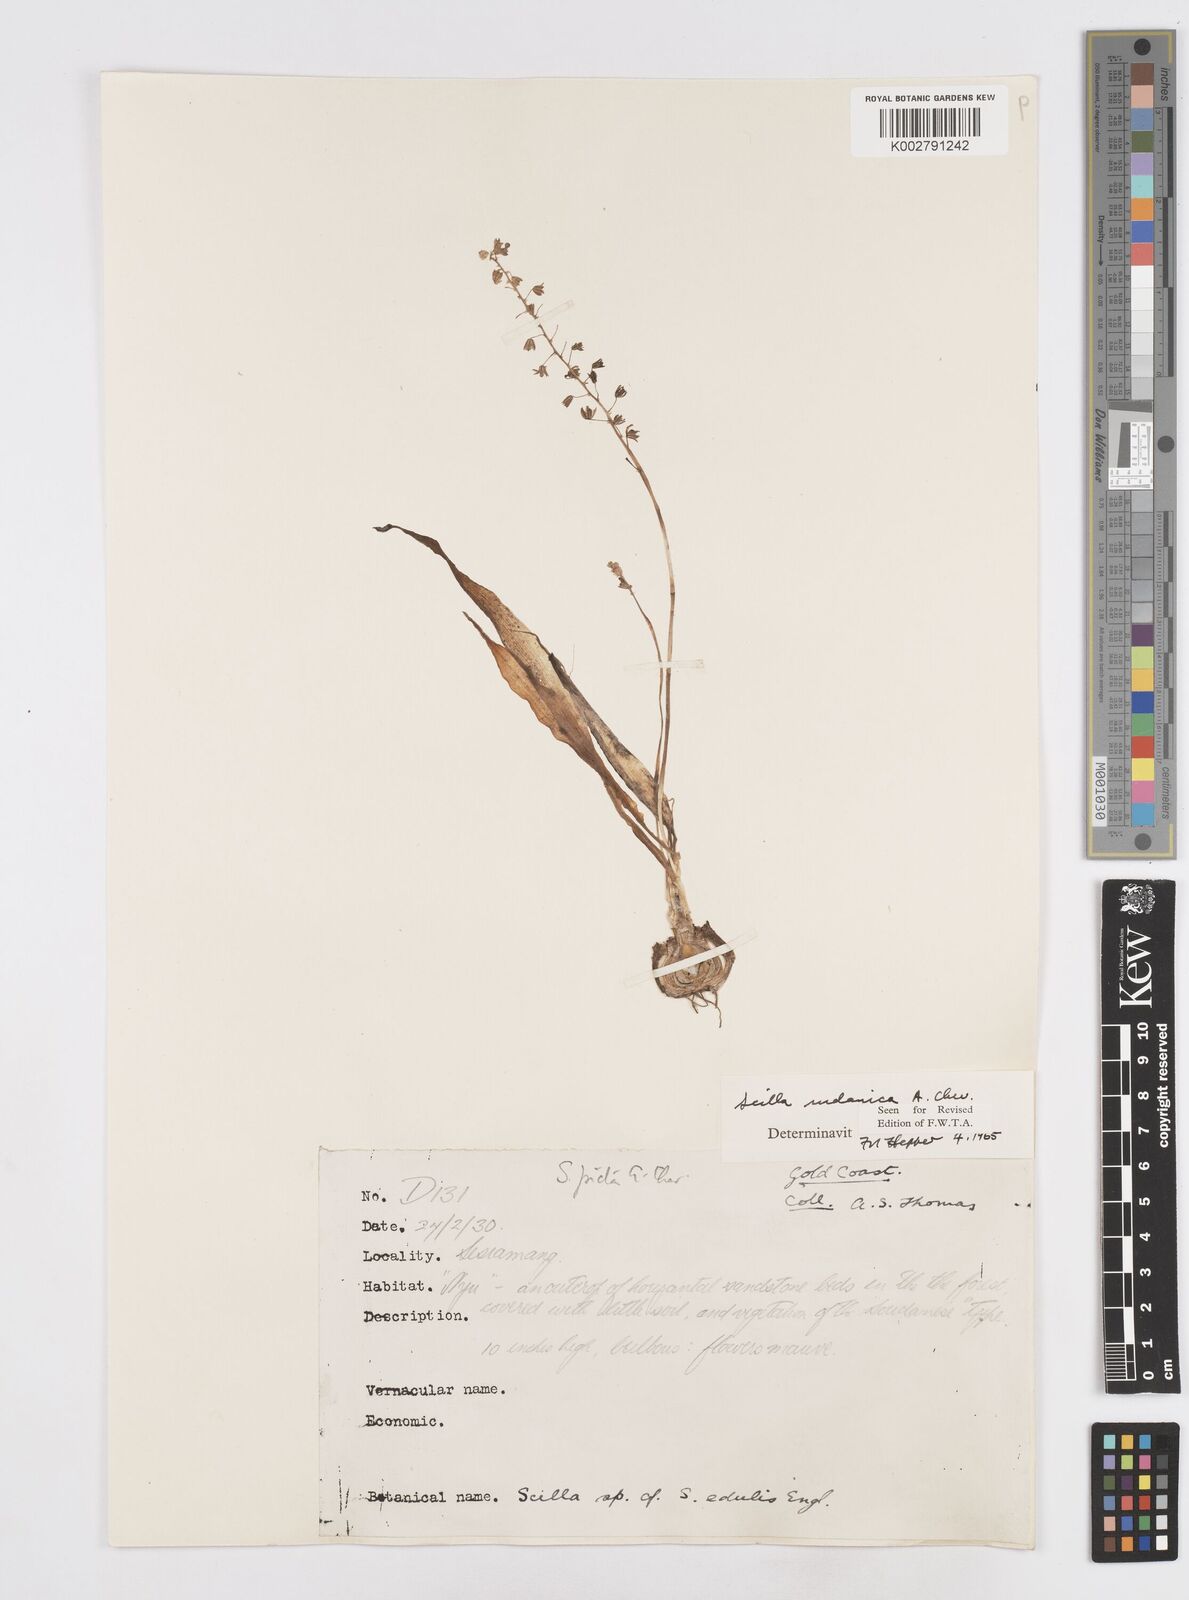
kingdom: Plantae
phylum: Tracheophyta
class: Liliopsida
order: Asparagales
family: Asparagaceae
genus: Ledebouria
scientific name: Ledebouria sudanica
